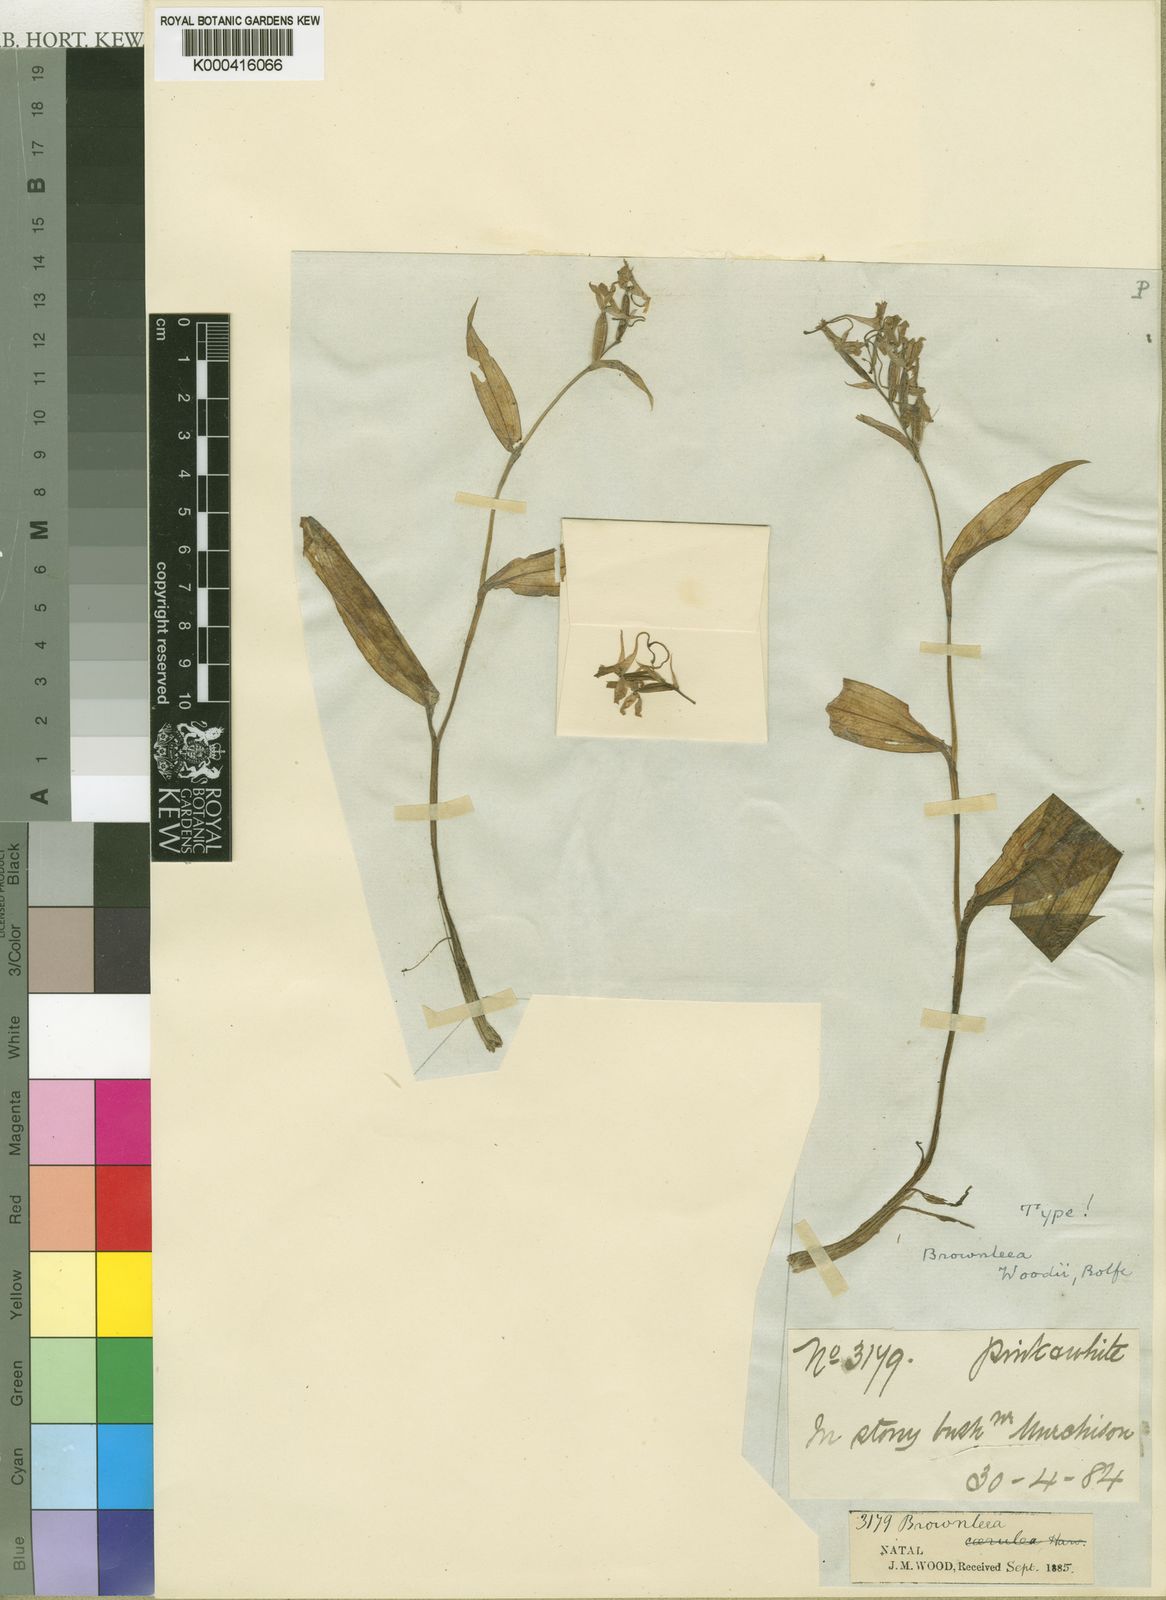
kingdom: Plantae
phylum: Tracheophyta
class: Liliopsida
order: Asparagales
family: Orchidaceae
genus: Brownleea
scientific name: Brownleea coerulea
